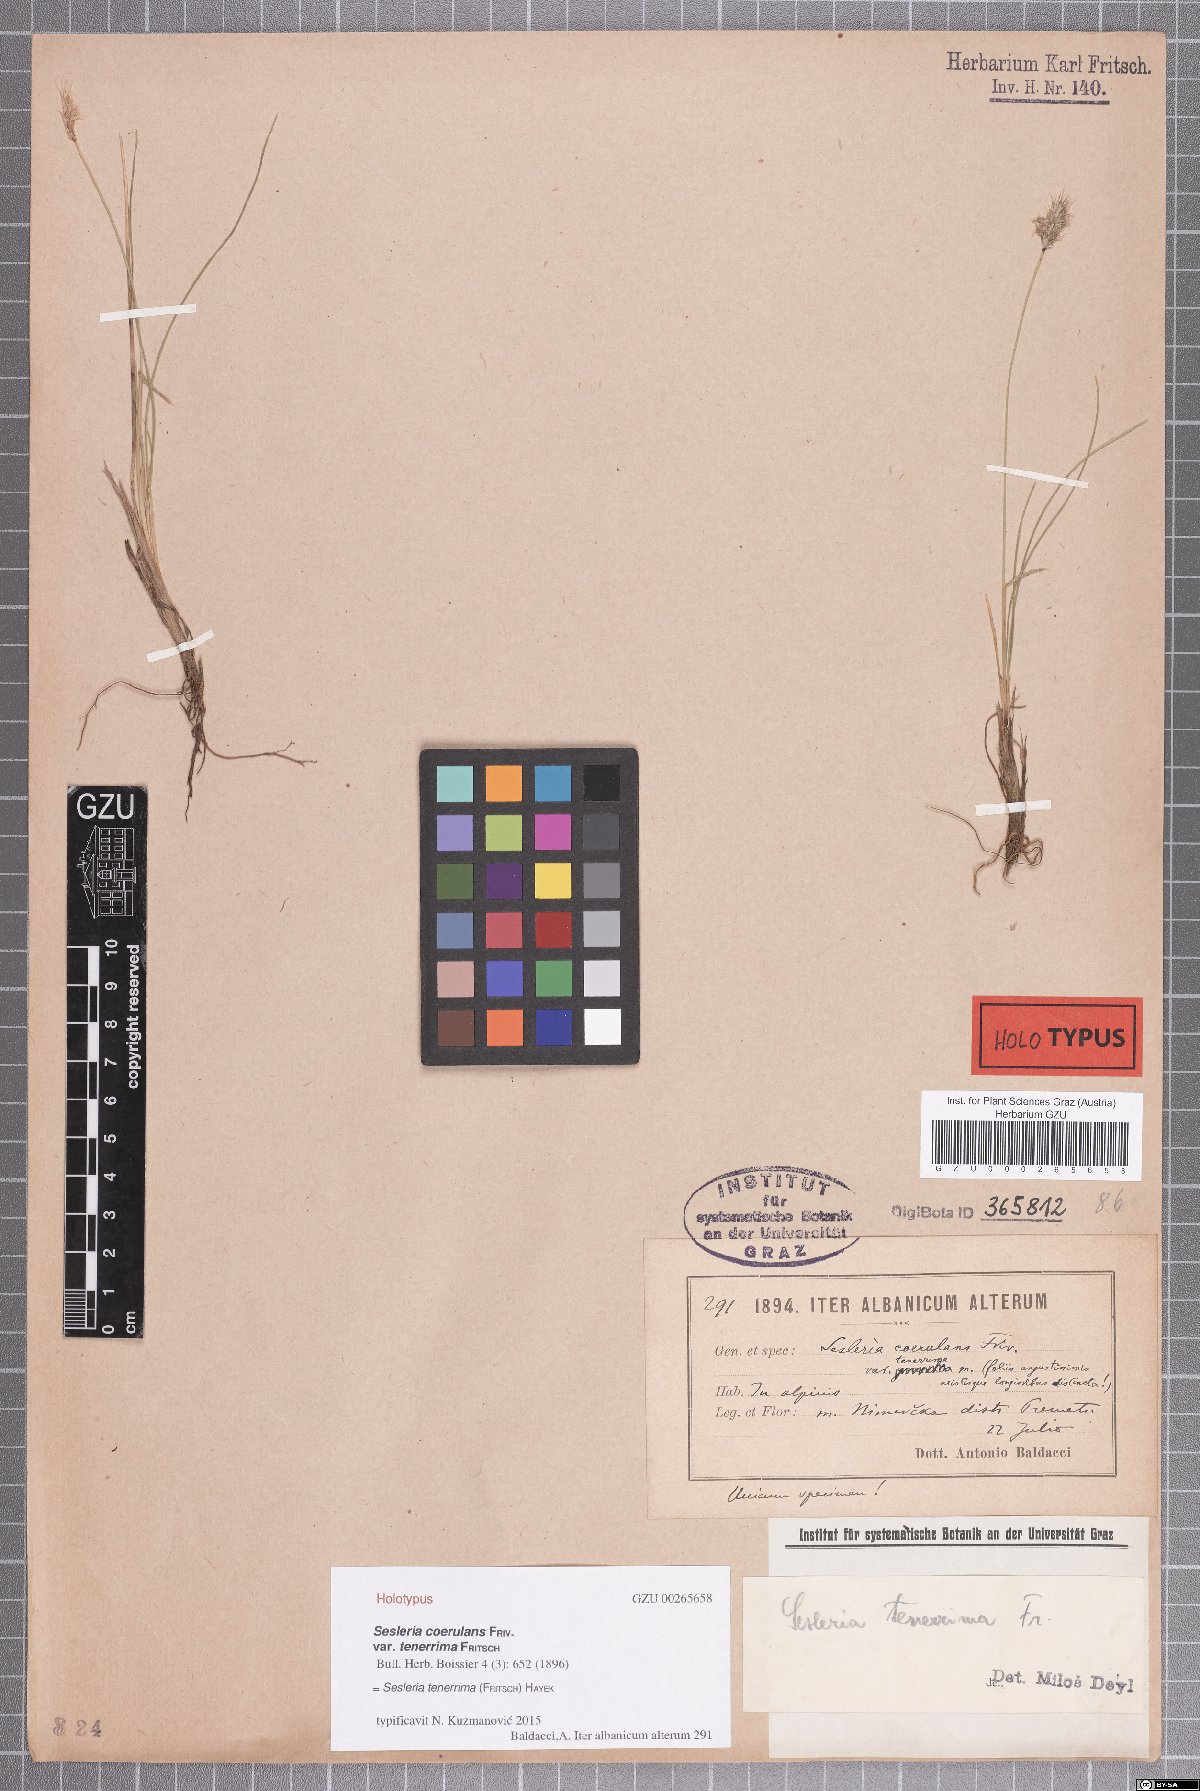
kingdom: Plantae
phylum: Tracheophyta
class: Liliopsida
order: Poales
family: Poaceae
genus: Sesleria
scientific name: Sesleria tenerrima
